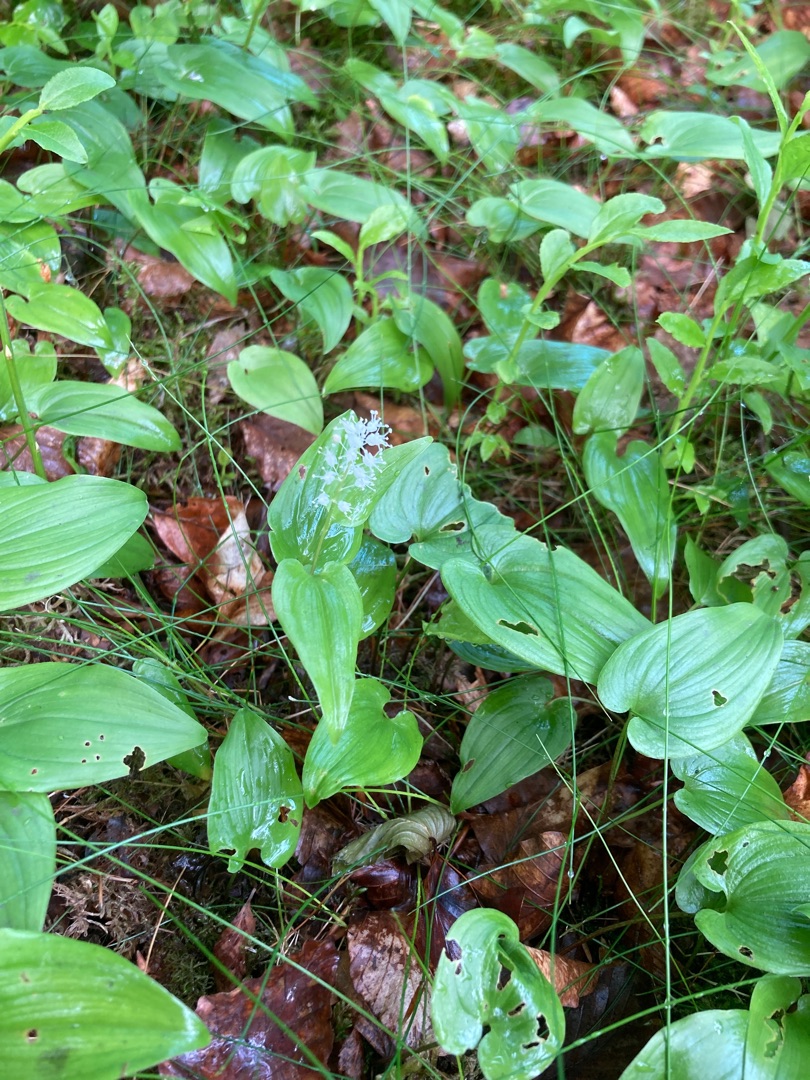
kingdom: Plantae
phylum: Tracheophyta
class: Liliopsida
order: Asparagales
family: Asparagaceae
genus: Maianthemum
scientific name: Maianthemum bifolium
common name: Majblomst
